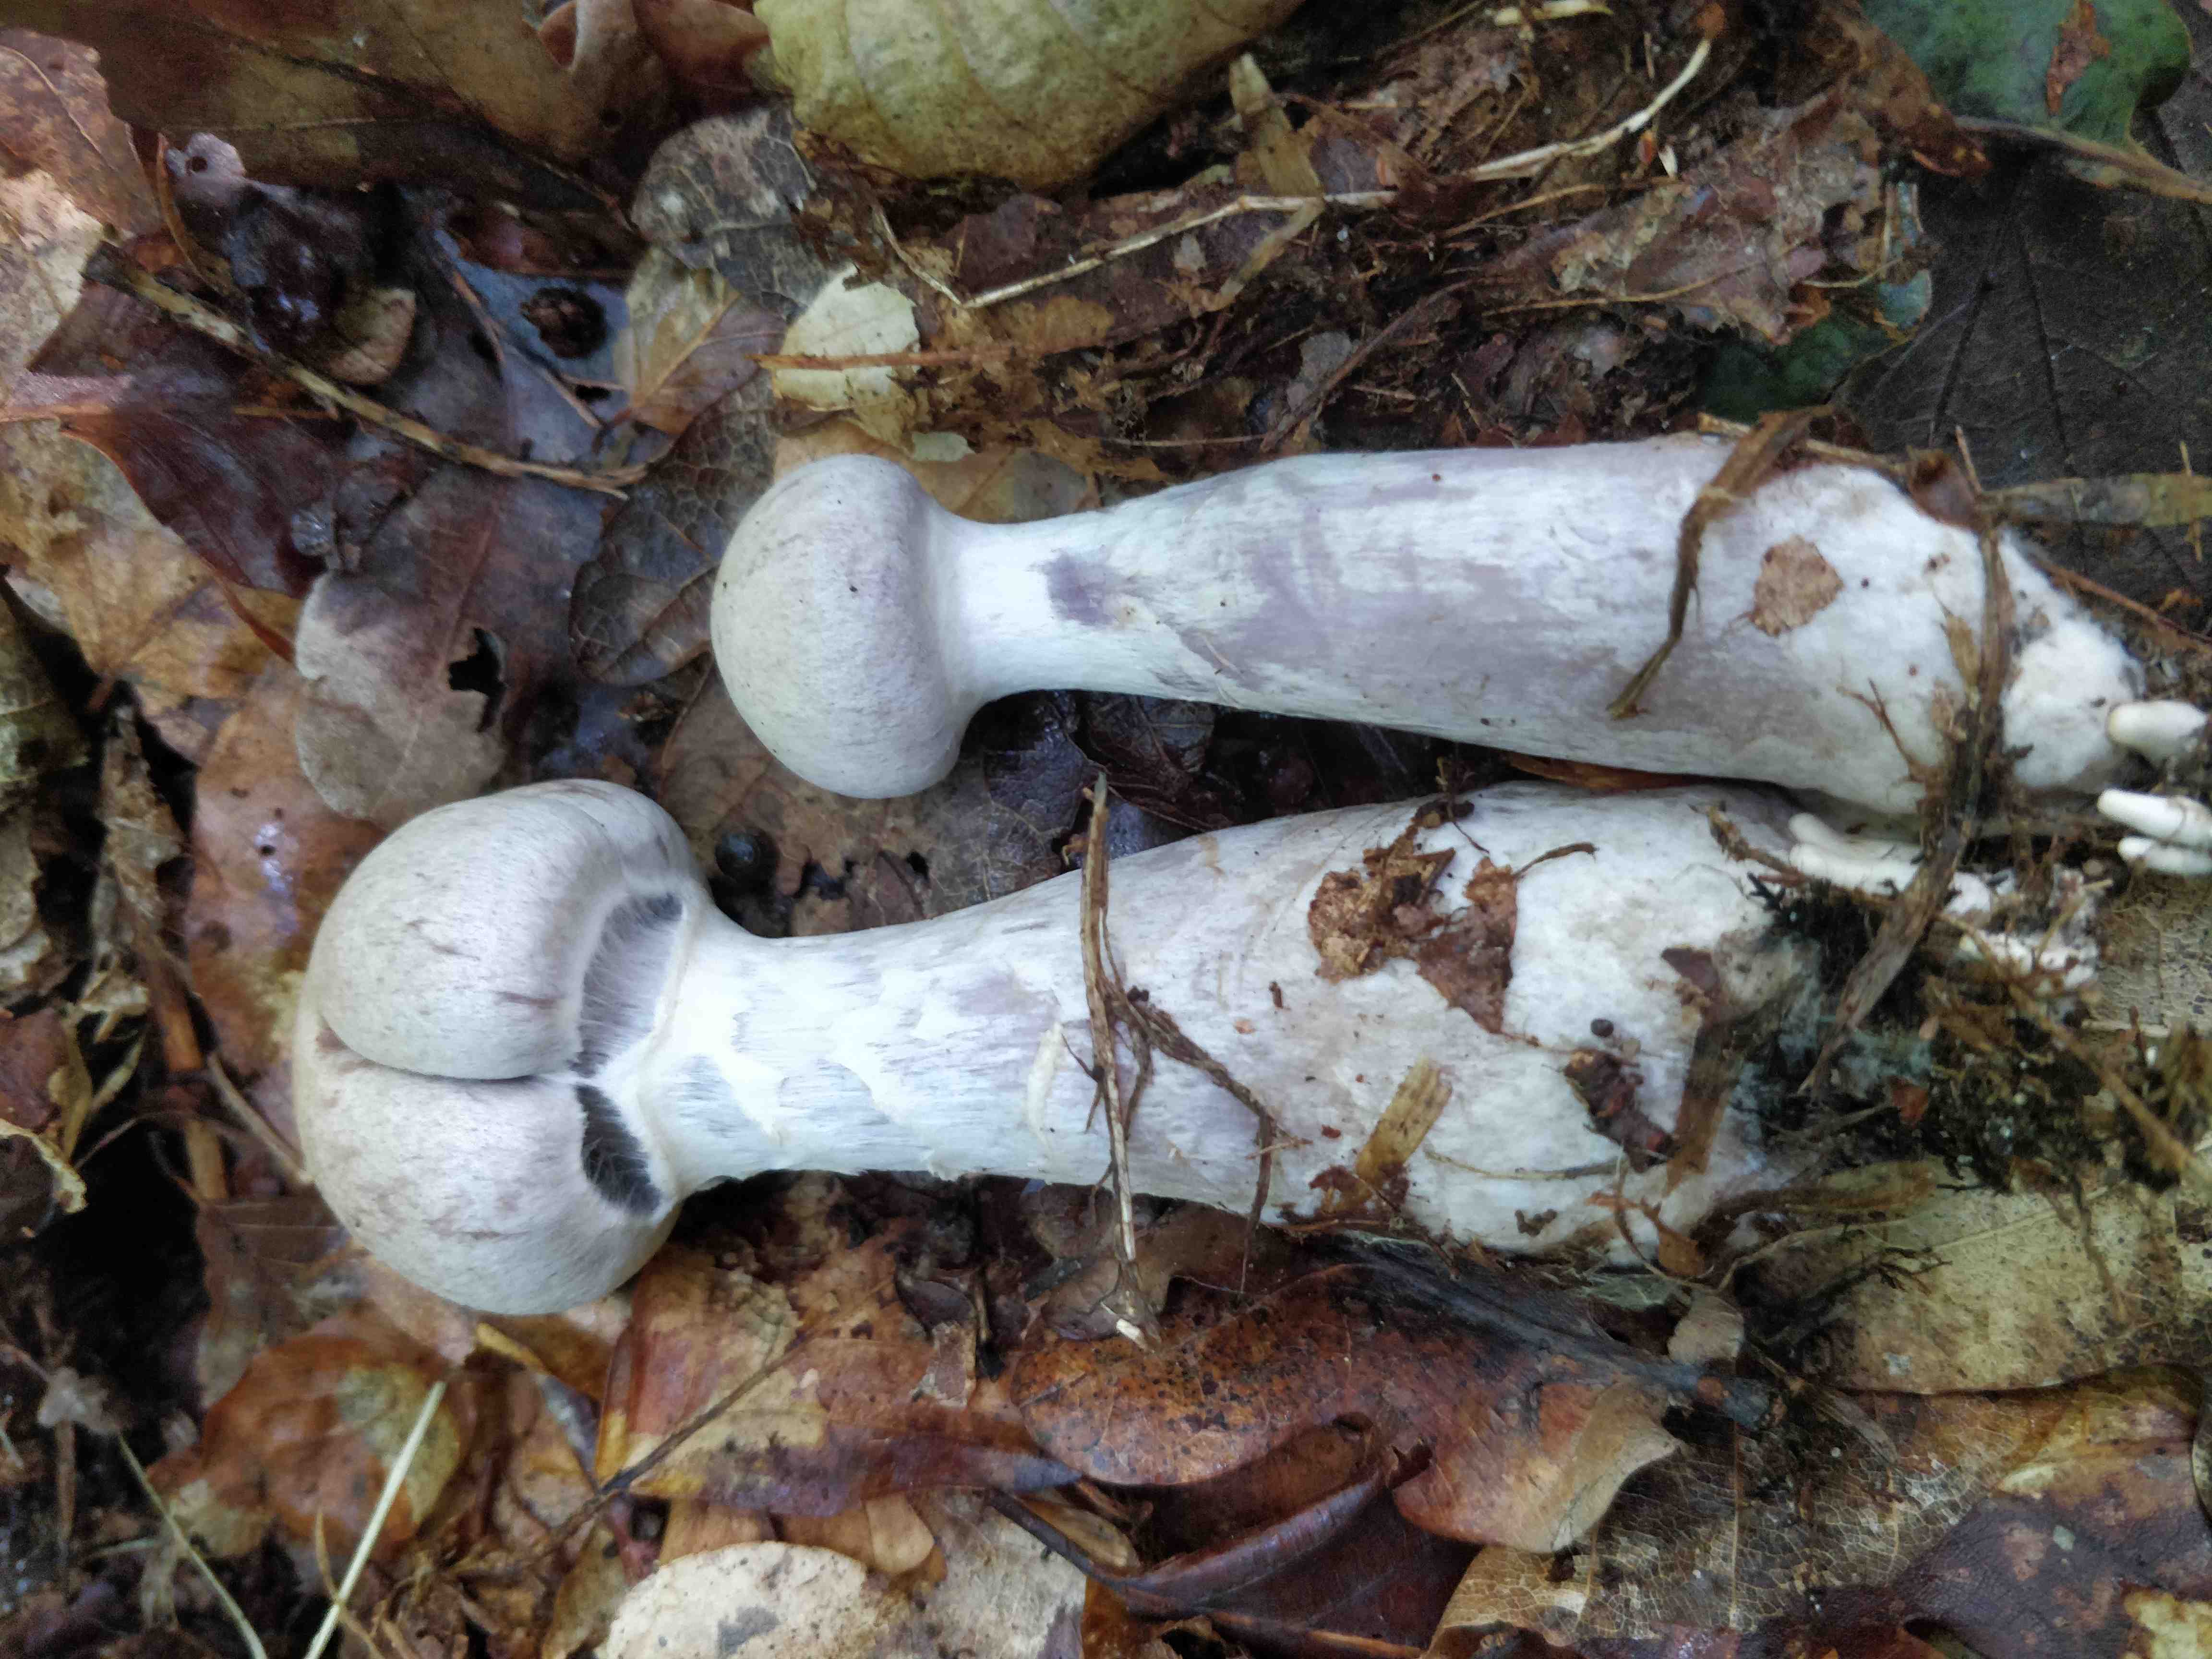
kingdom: Fungi
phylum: Basidiomycota
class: Agaricomycetes
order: Agaricales
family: Cortinariaceae
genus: Cortinarius
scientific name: Cortinarius alboviolaceus
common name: lysviolet slørhat
